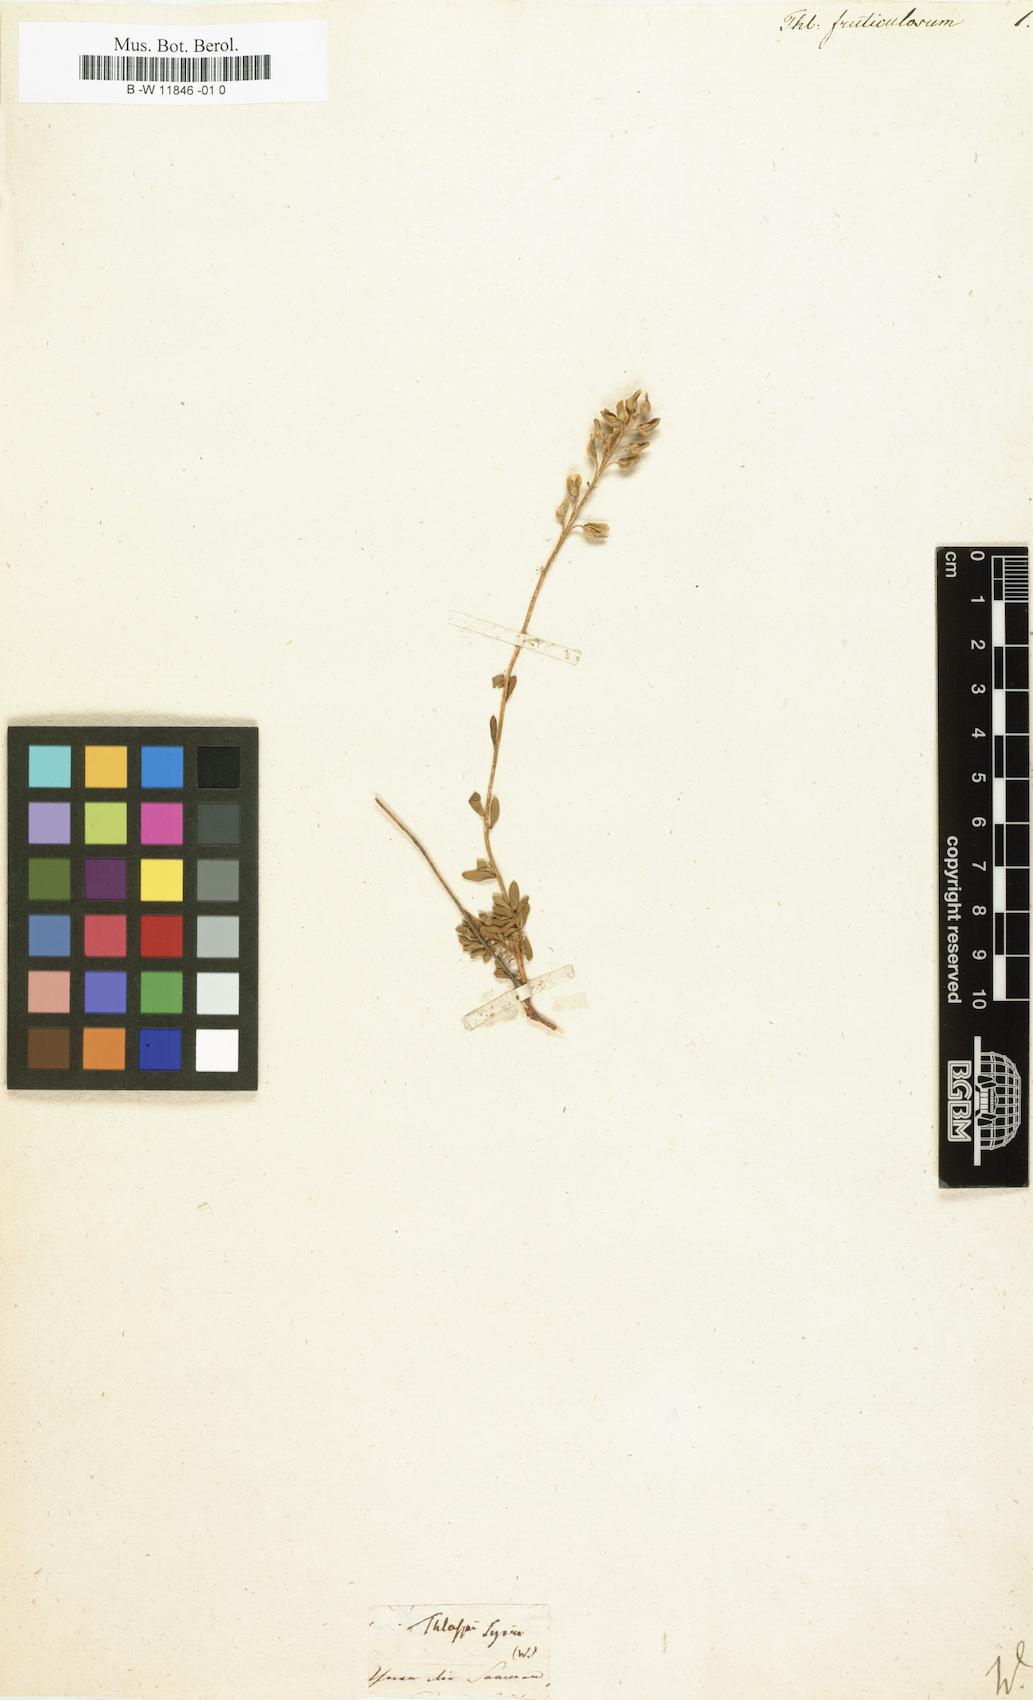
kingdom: Plantae
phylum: Tracheophyta
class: Magnoliopsida
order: Brassicales
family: Brassicaceae
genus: Thlaspi
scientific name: Thlaspi
